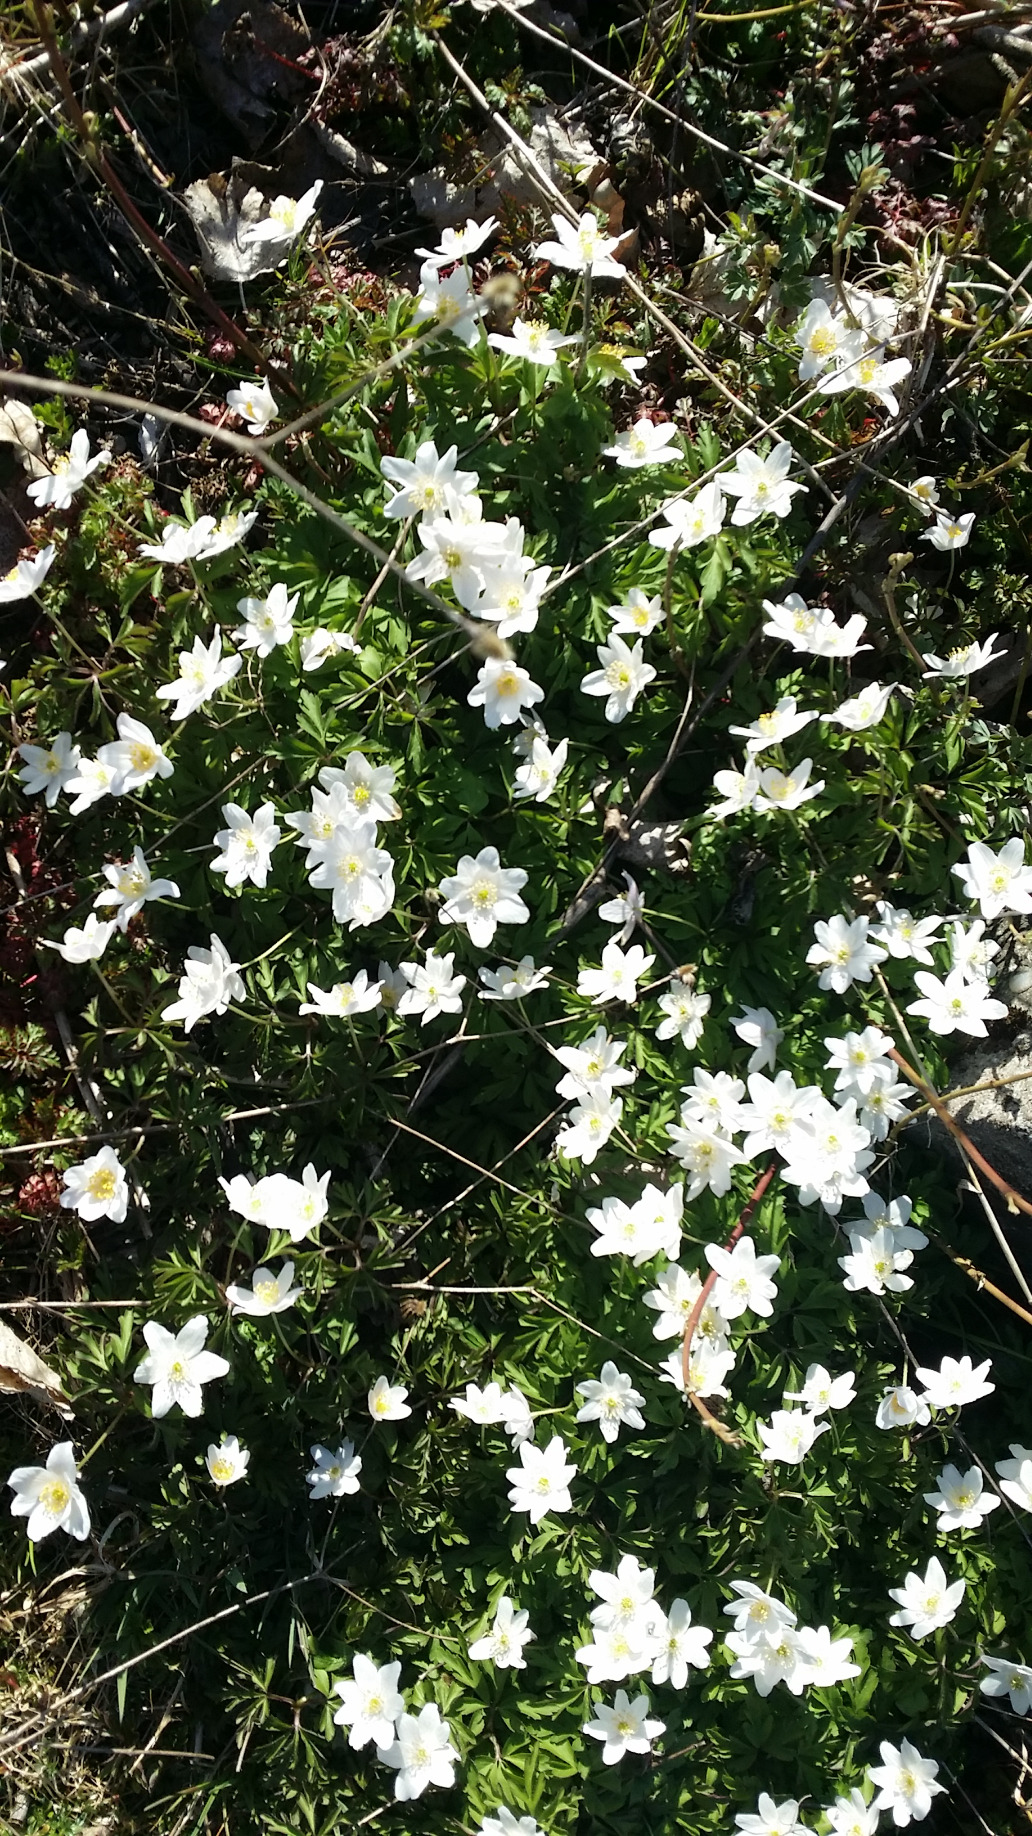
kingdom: Plantae
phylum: Tracheophyta
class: Magnoliopsida
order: Ranunculales
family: Ranunculaceae
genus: Anemone
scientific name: Anemone nemorosa
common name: Hvid anemone
